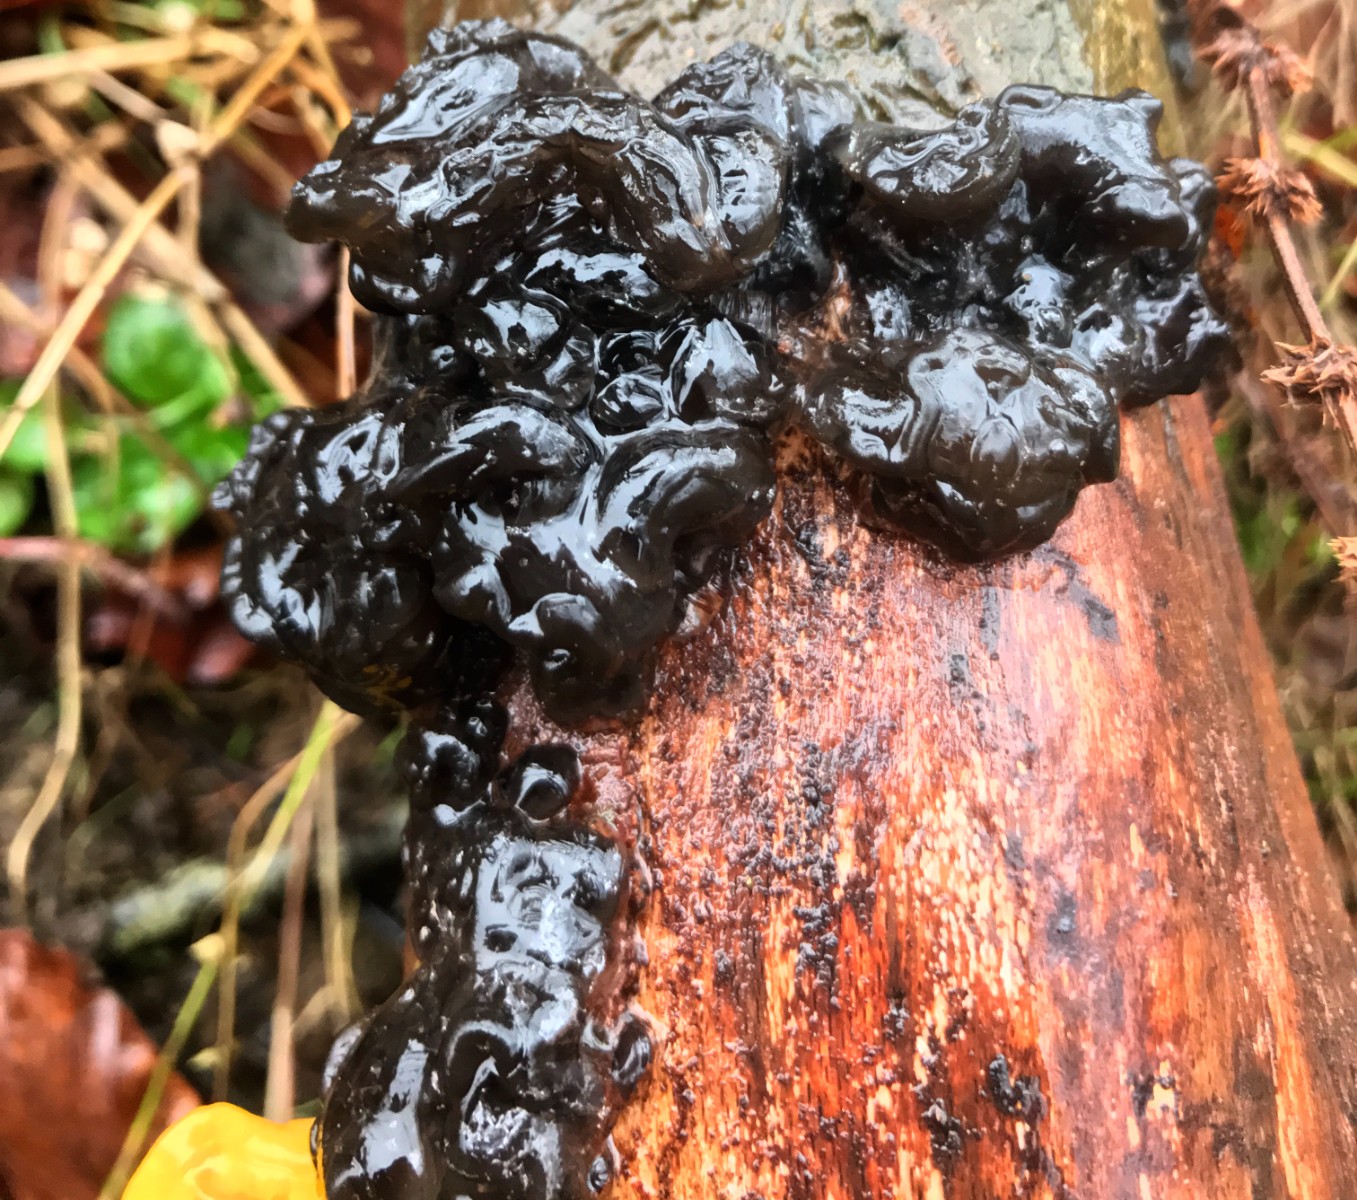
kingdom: Fungi
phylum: Basidiomycota
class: Agaricomycetes
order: Auriculariales
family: Auriculariaceae
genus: Exidia
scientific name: Exidia nigricans
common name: almindelig bævretop
